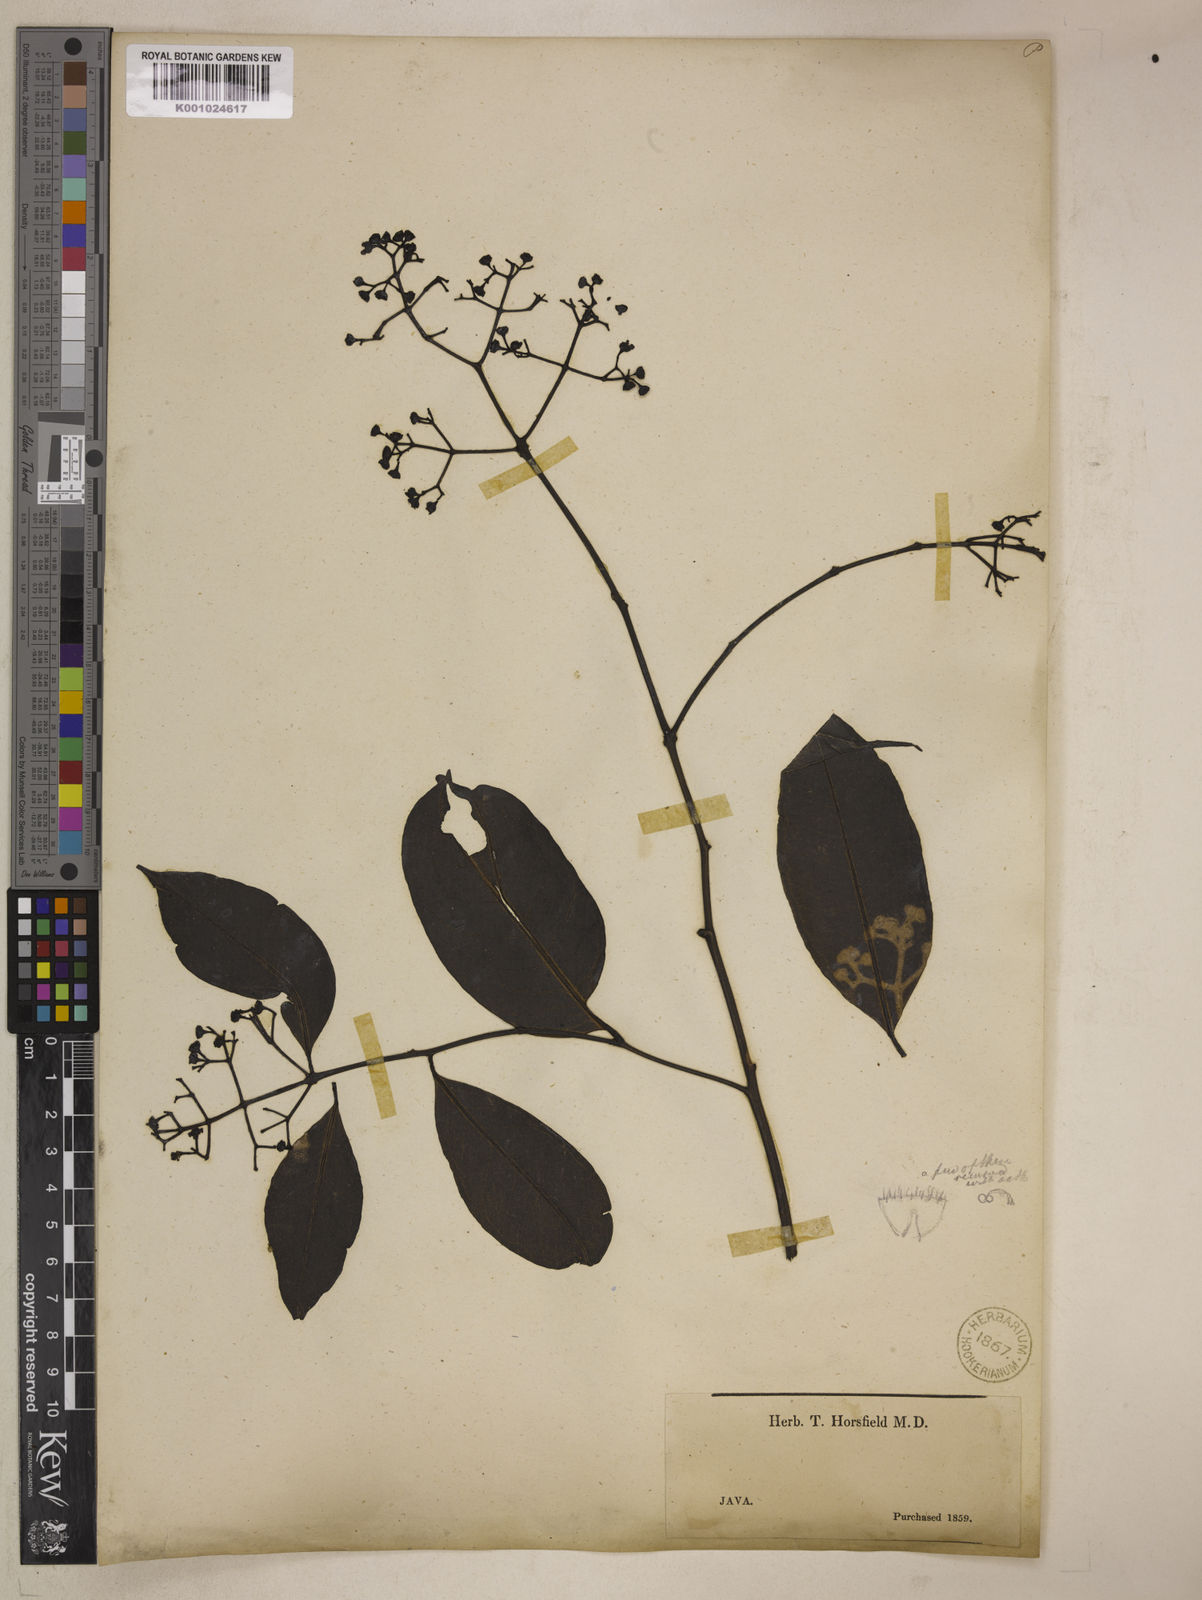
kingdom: Plantae
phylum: Tracheophyta
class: Magnoliopsida
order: Gentianales
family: Apocynaceae
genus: Diplorhynchus
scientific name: Diplorhynchus
